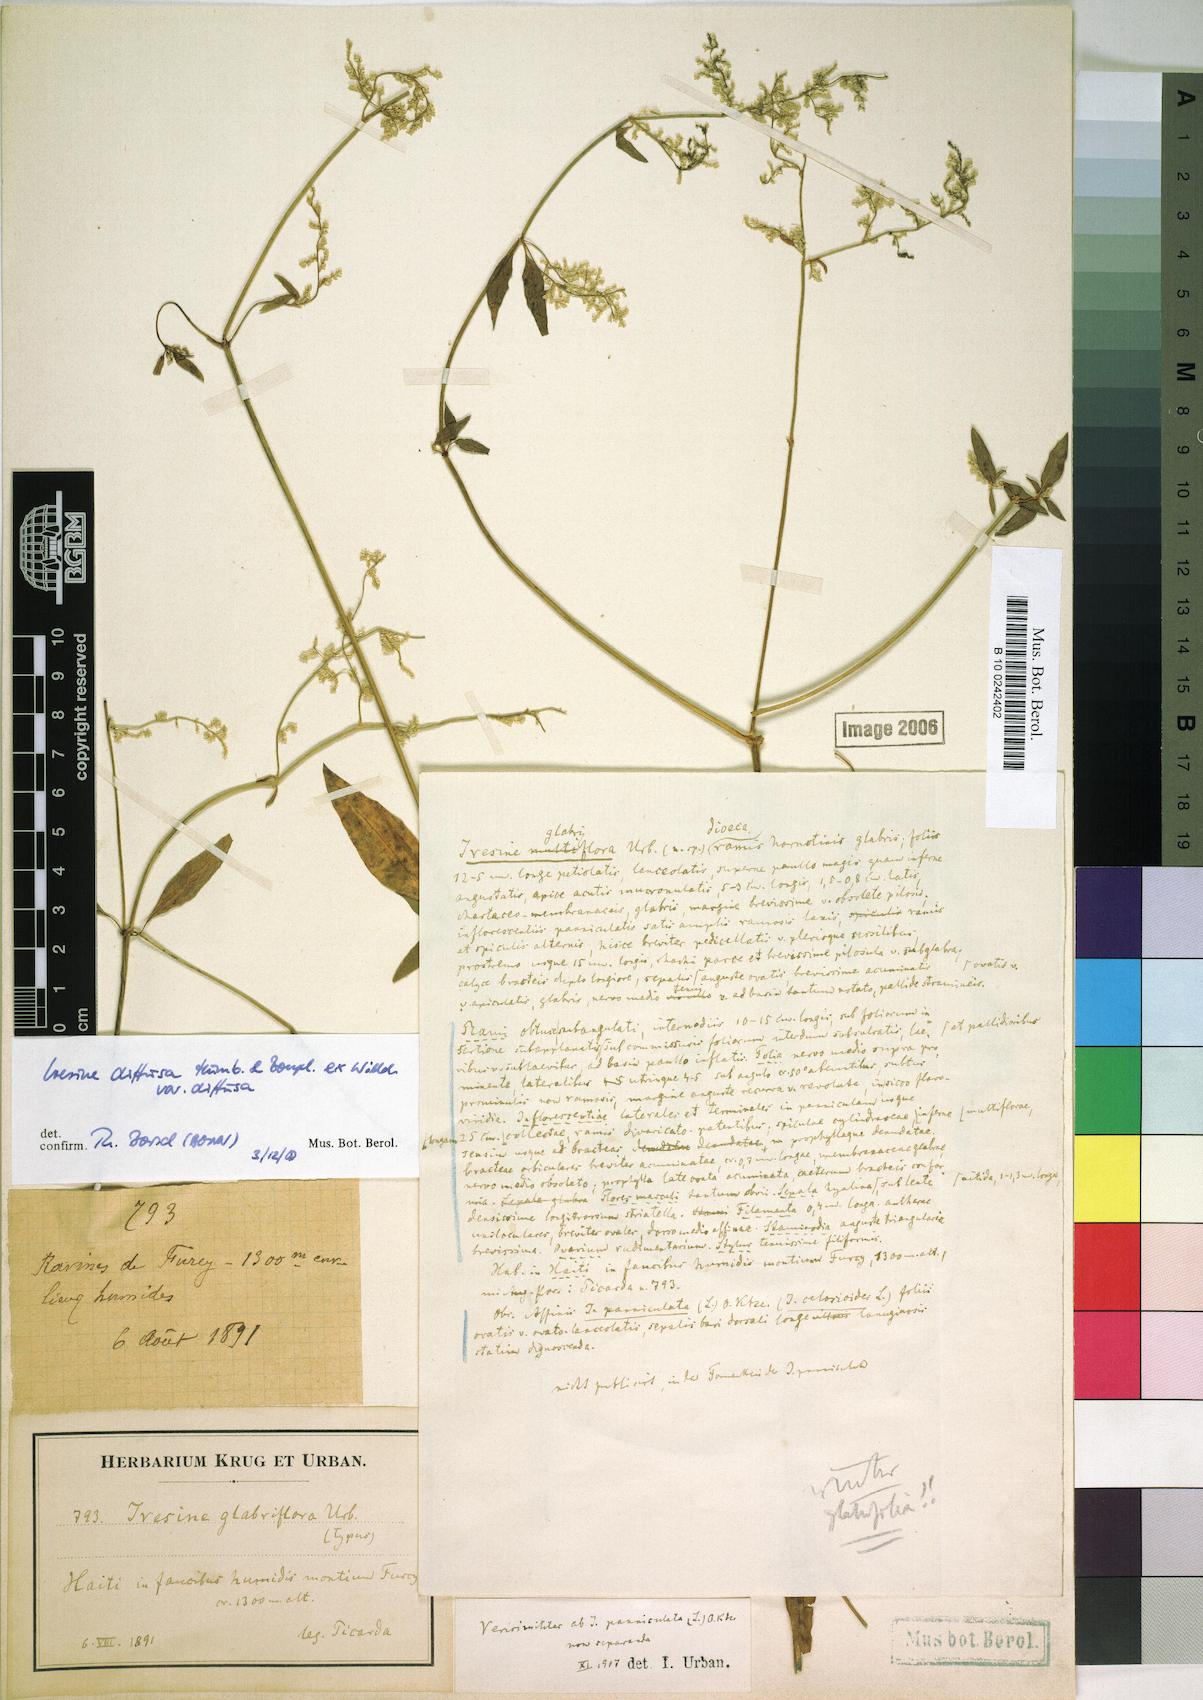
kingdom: Plantae
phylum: Tracheophyta
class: Magnoliopsida
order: Caryophyllales
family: Amaranthaceae
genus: Iresine
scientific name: Iresine diffusa
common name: Juba's-bush
